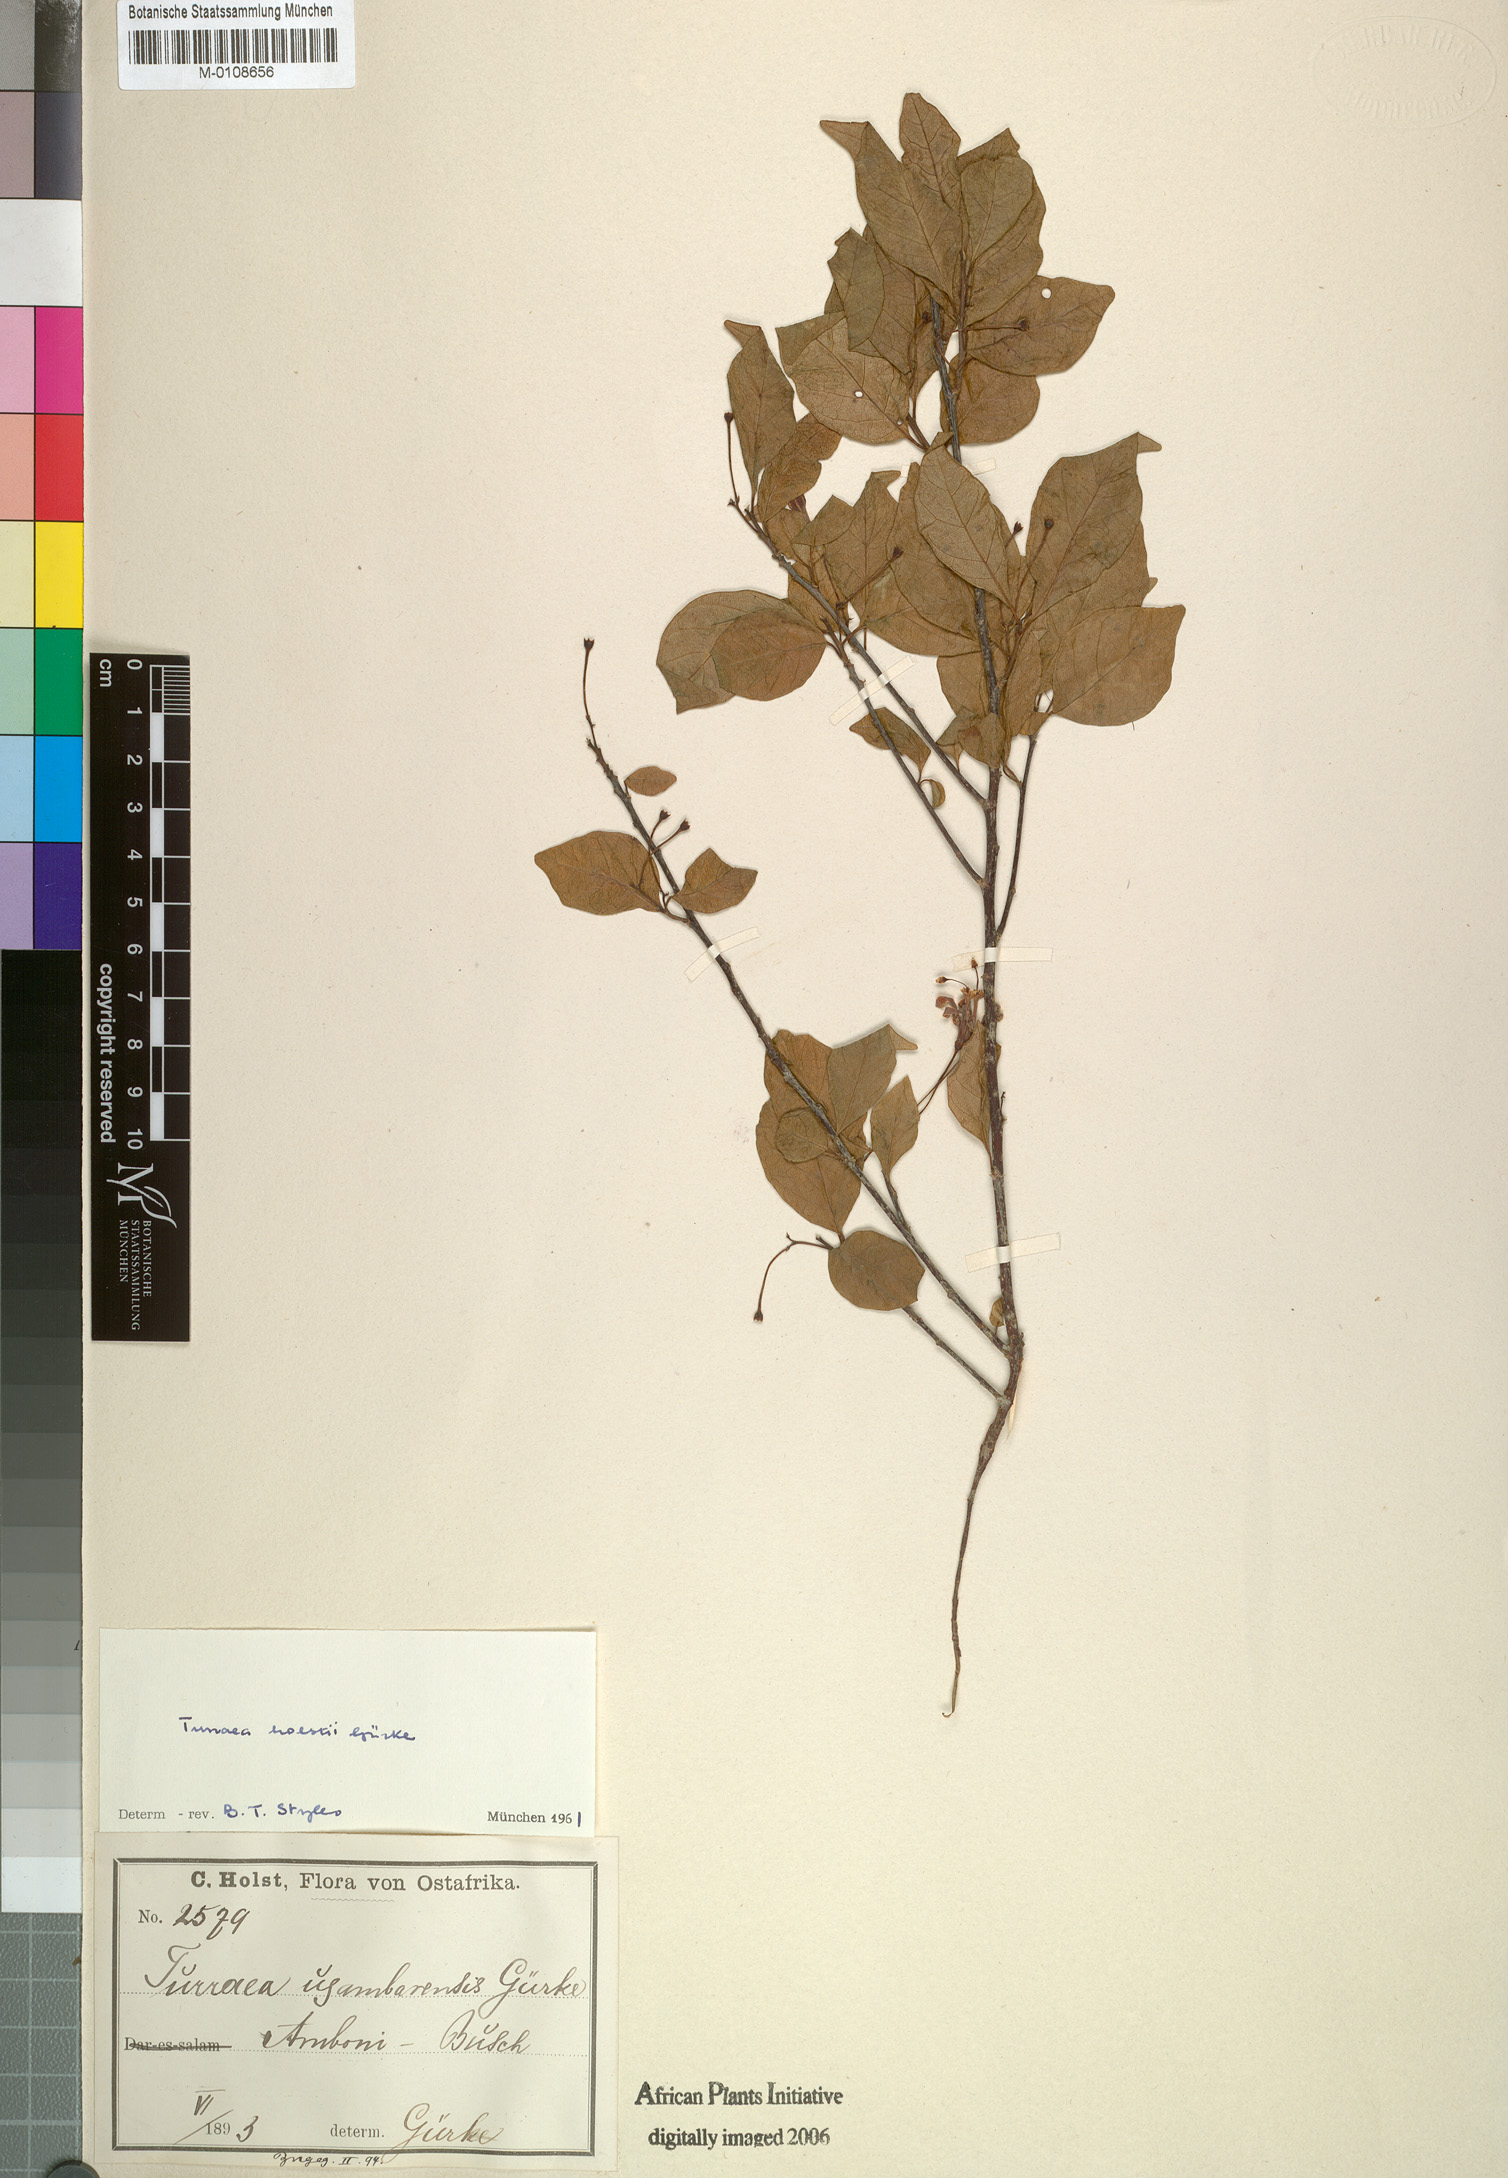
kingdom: Plantae
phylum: Tracheophyta
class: Magnoliopsida
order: Sapindales
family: Meliaceae
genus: Turraea
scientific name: Turraea holstii
